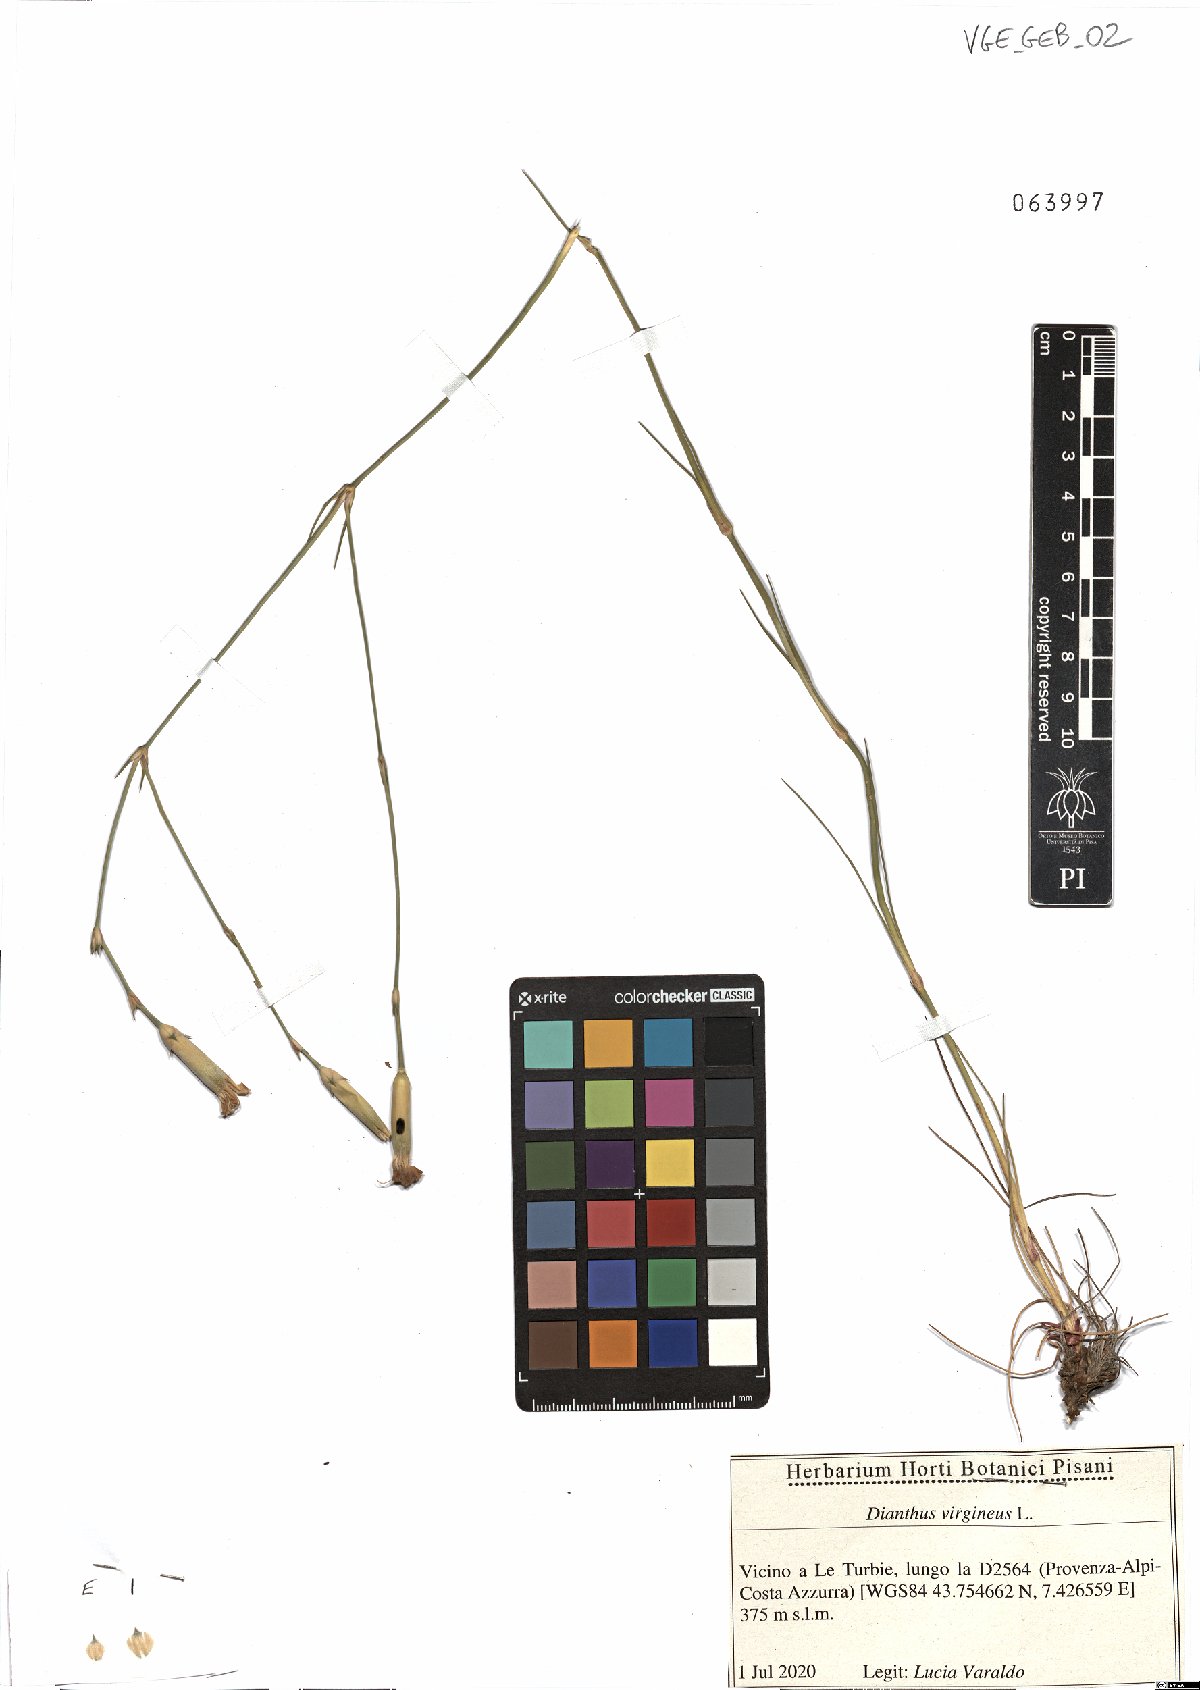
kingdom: Plantae
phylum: Tracheophyta
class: Magnoliopsida
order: Caryophyllales
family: Caryophyllaceae
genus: Dianthus
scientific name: Dianthus virgineus
